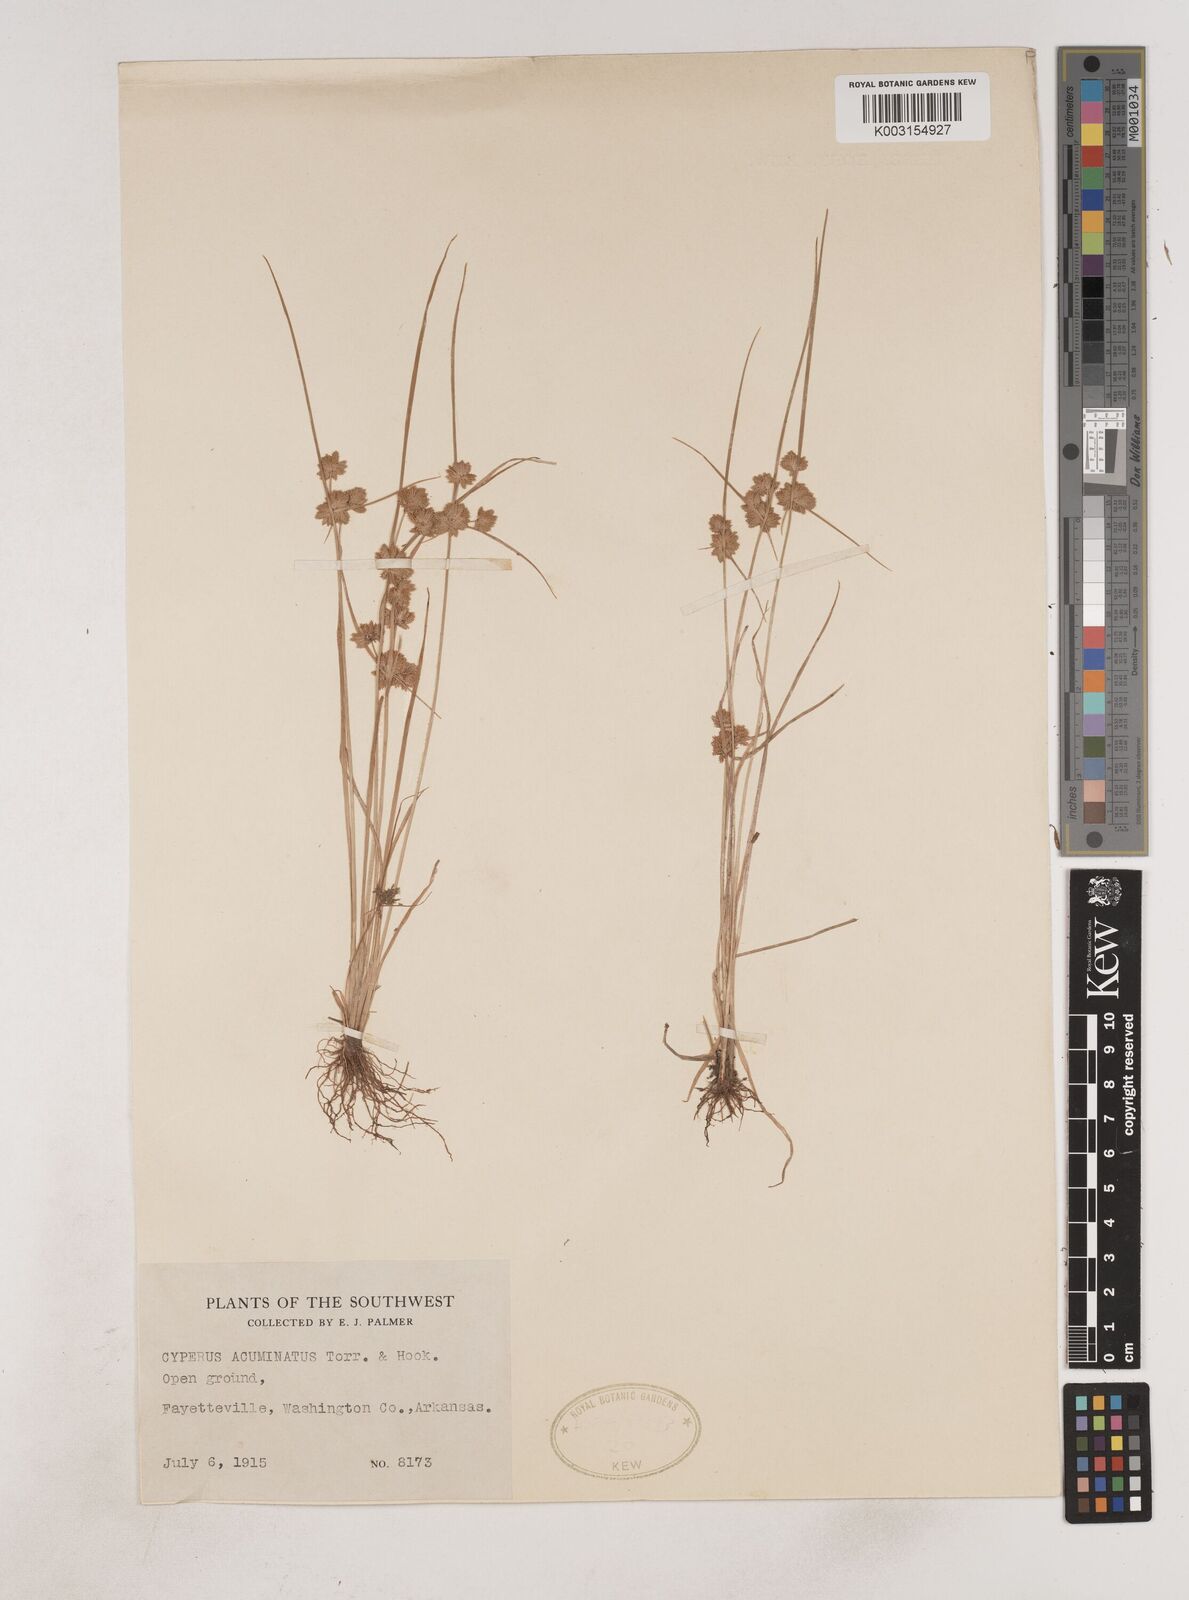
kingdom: Plantae
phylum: Tracheophyta
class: Liliopsida
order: Poales
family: Cyperaceae
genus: Cyperus
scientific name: Cyperus acuminatus
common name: Short-pointed cyperus
